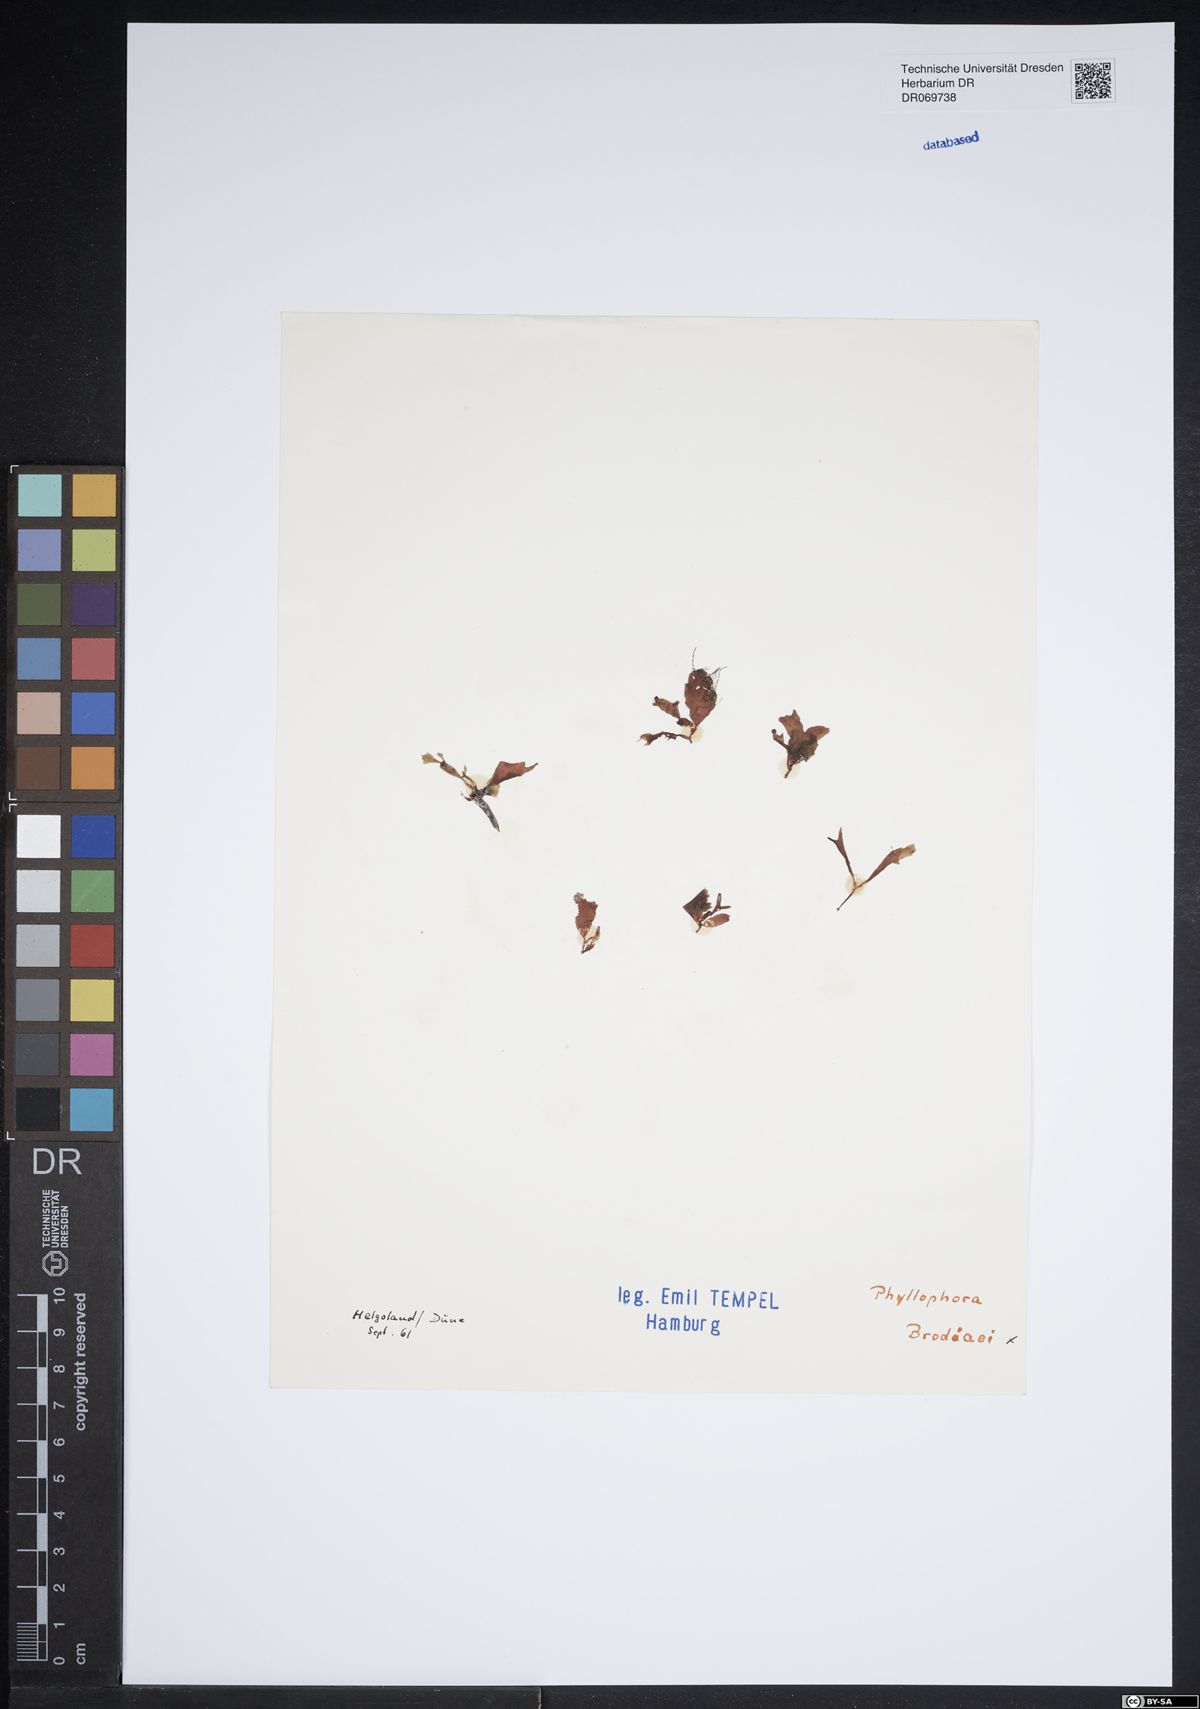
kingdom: Plantae
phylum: Rhodophyta
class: Florideophyceae
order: Gigartinales
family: Phyllophoraceae
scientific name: Phyllophoraceae
